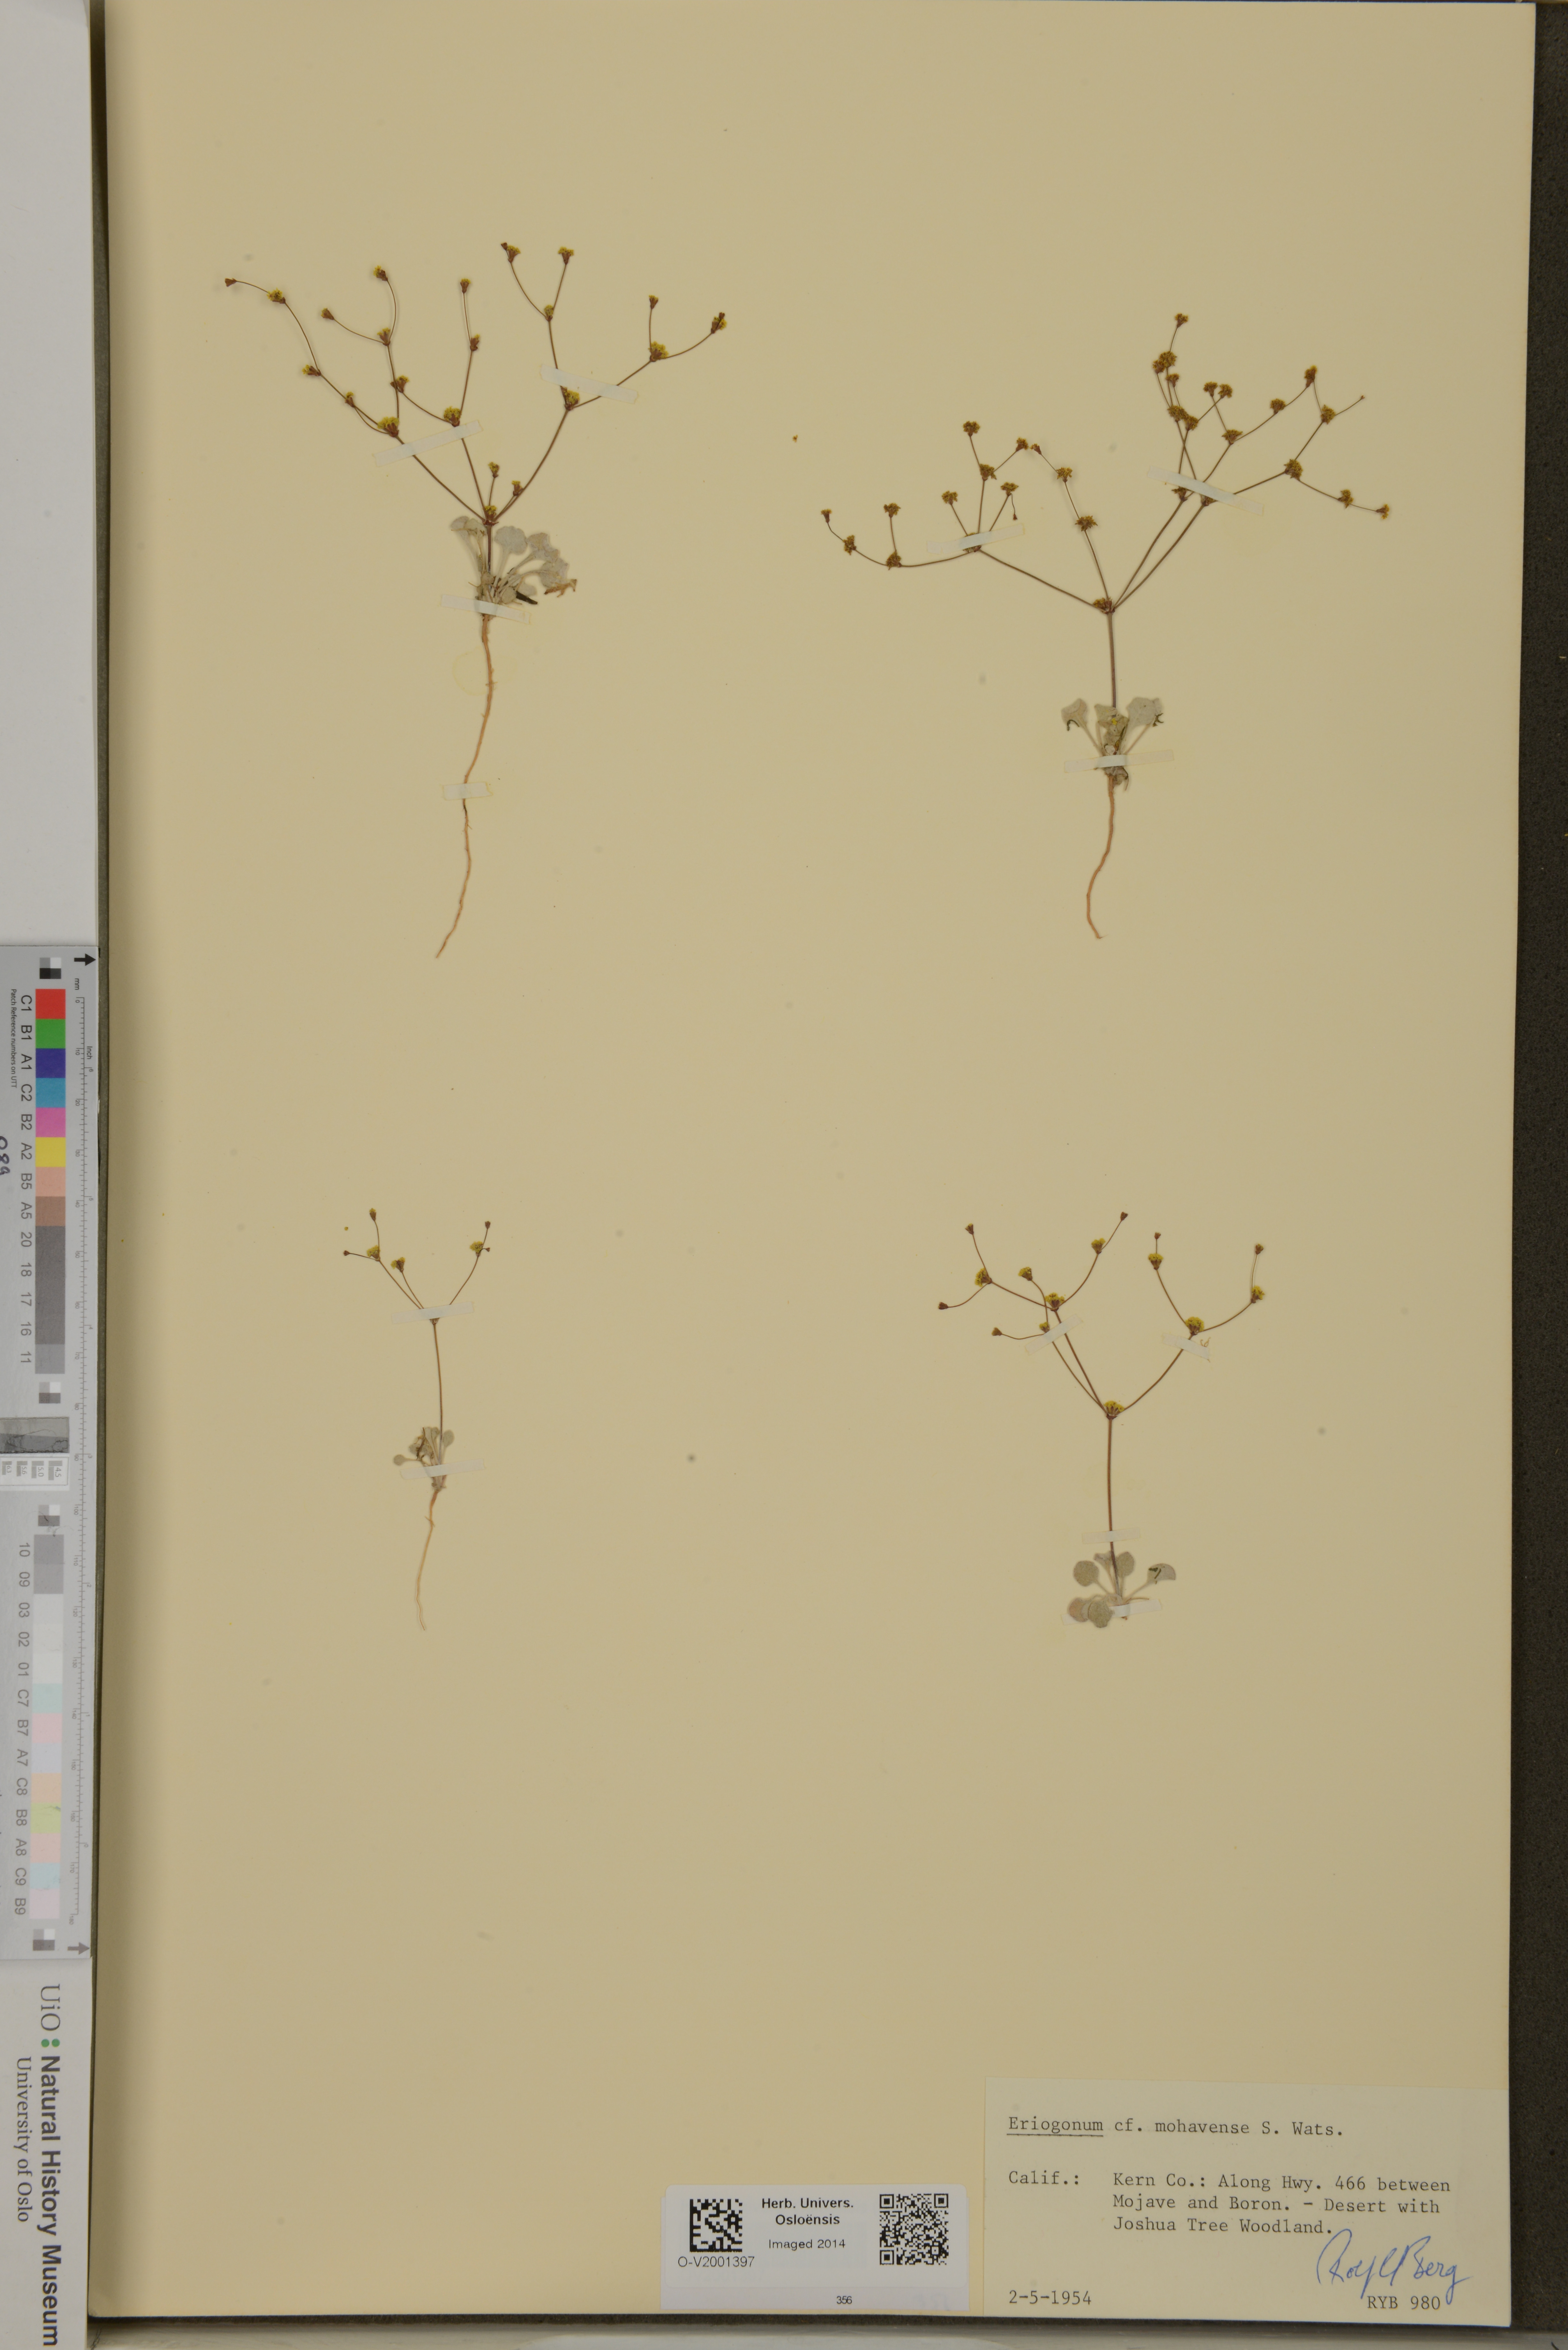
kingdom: Plantae
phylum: Tracheophyta
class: Magnoliopsida
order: Caryophyllales
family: Polygonaceae
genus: Eriogonum
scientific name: Eriogonum mohavense
